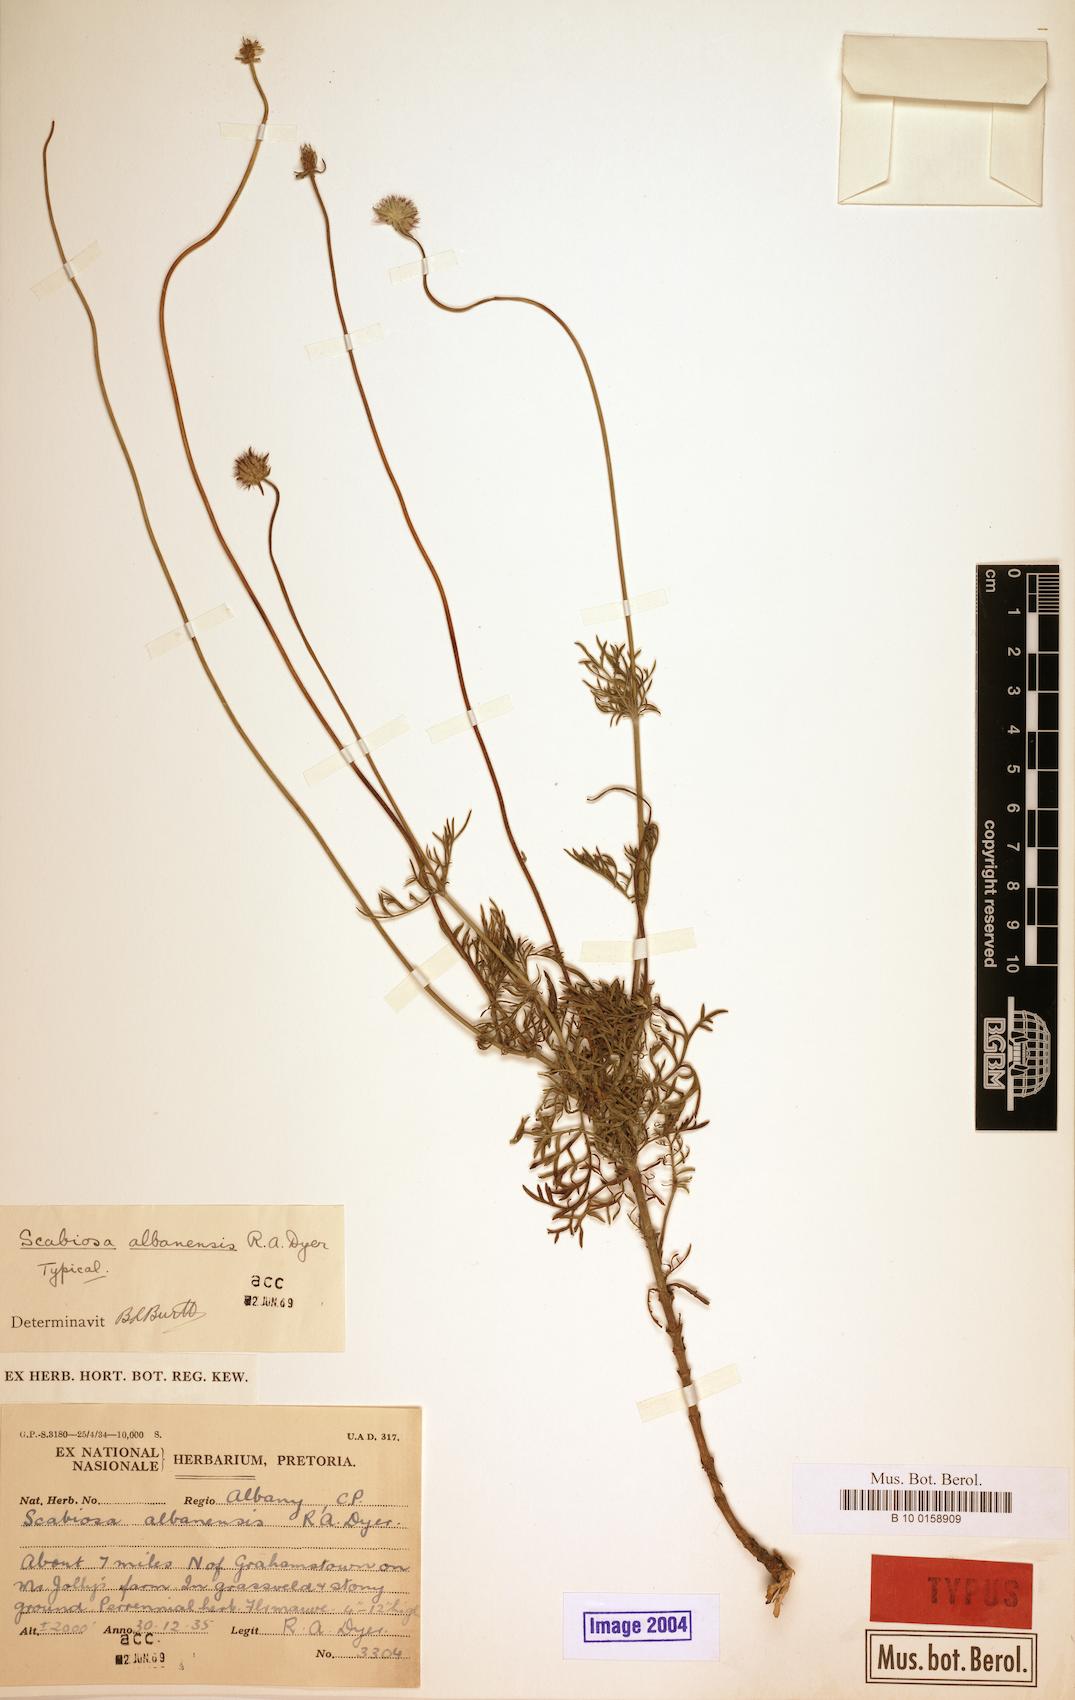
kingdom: Plantae
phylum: Tracheophyta
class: Magnoliopsida
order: Dipsacales
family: Caprifoliaceae
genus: Scabiosa
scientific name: Scabiosa albanensis
